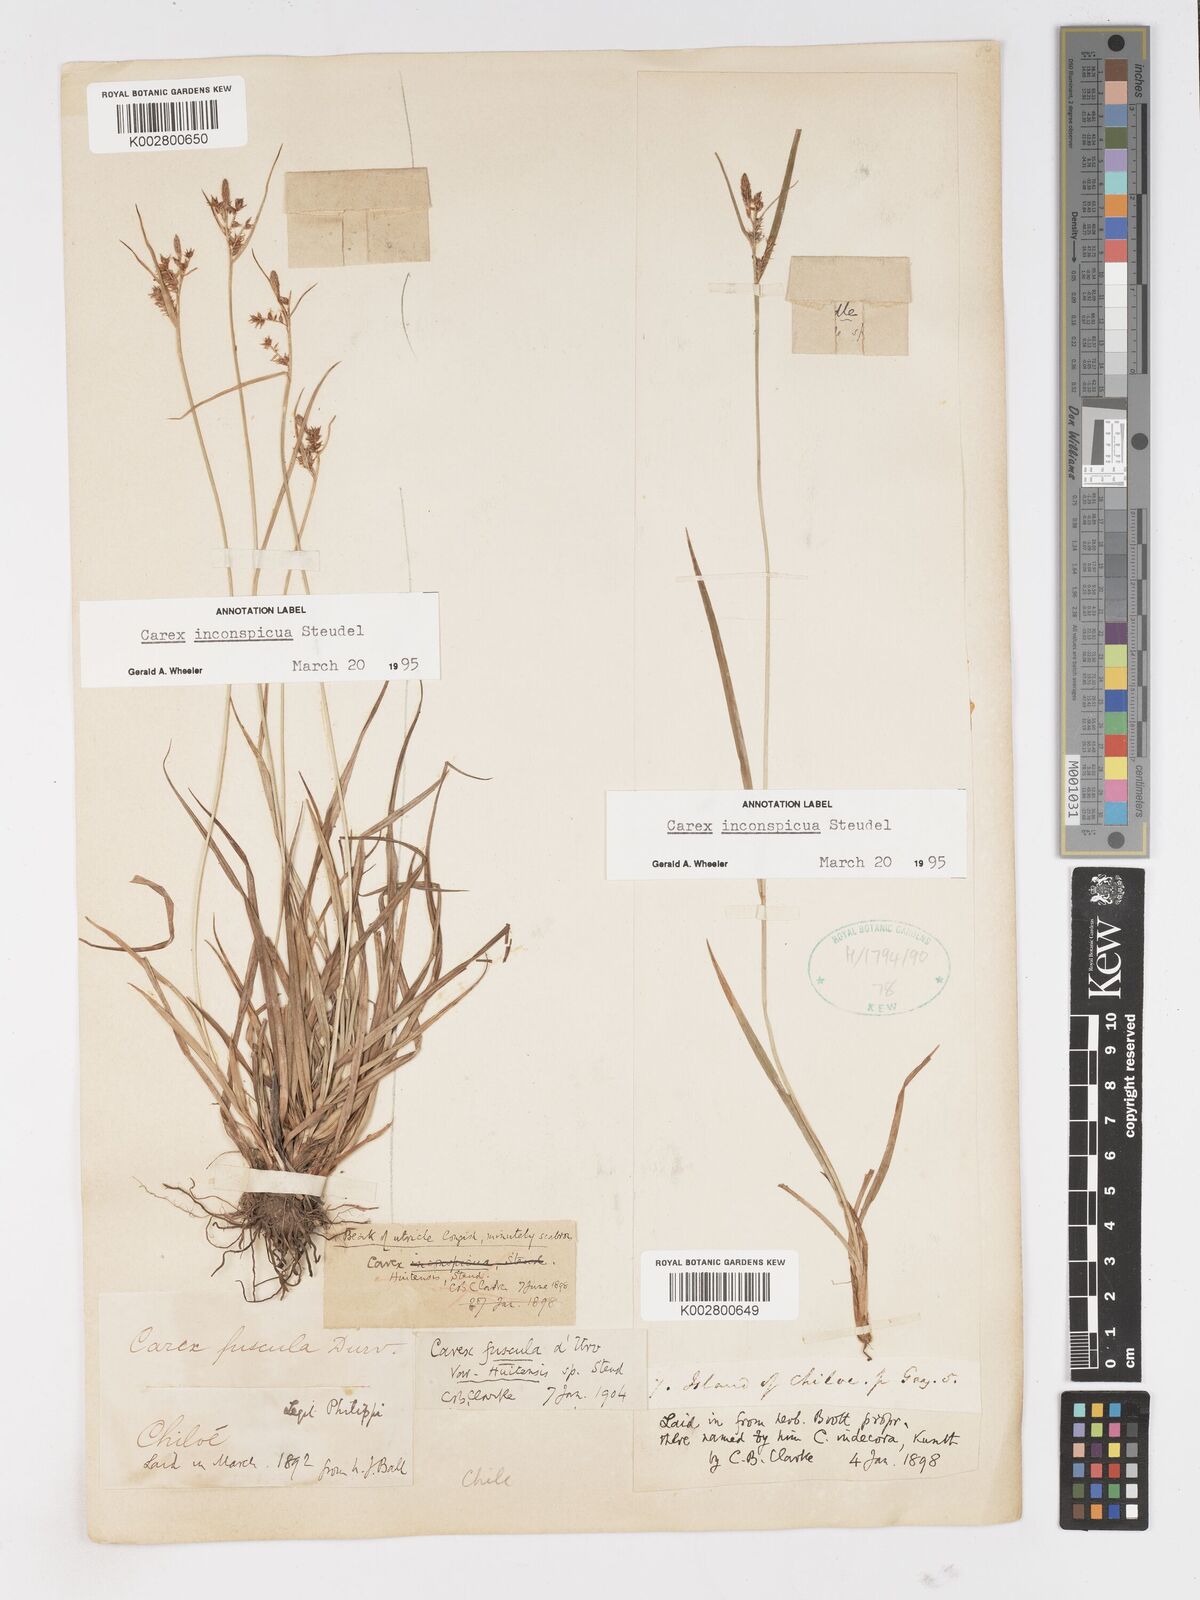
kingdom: Plantae
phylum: Tracheophyta
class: Liliopsida
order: Poales
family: Cyperaceae
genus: Carex
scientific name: Carex fuscula
